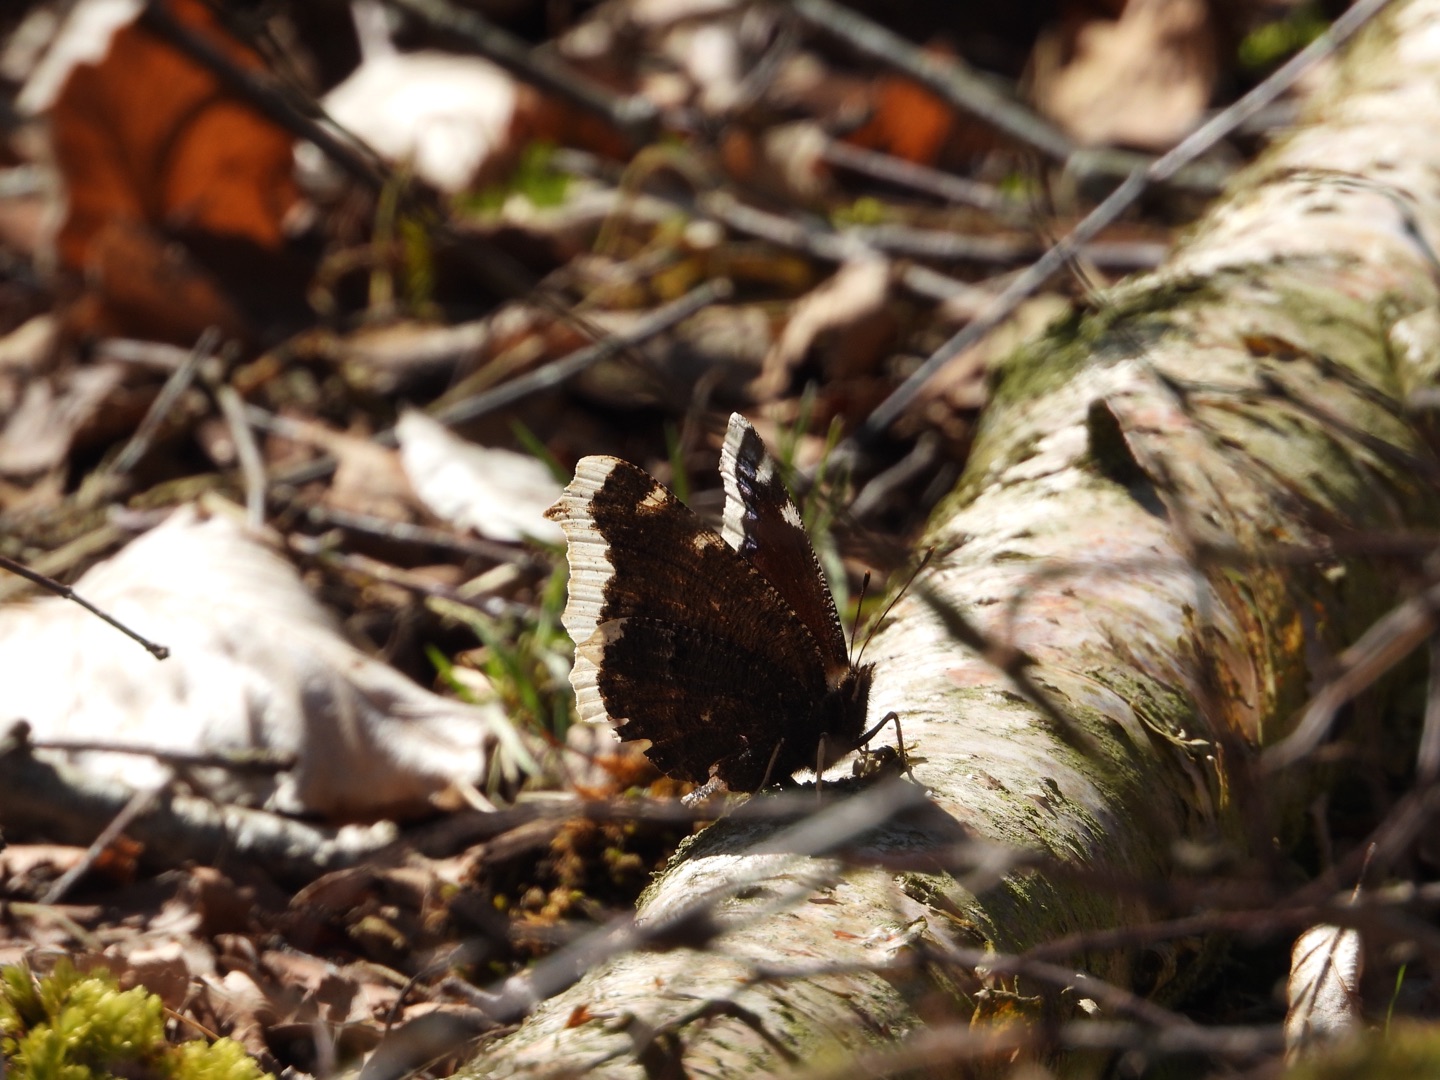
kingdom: Animalia
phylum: Arthropoda
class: Insecta
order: Lepidoptera
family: Nymphalidae
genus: Nymphalis
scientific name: Nymphalis antiopa
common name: Sørgekåbe
